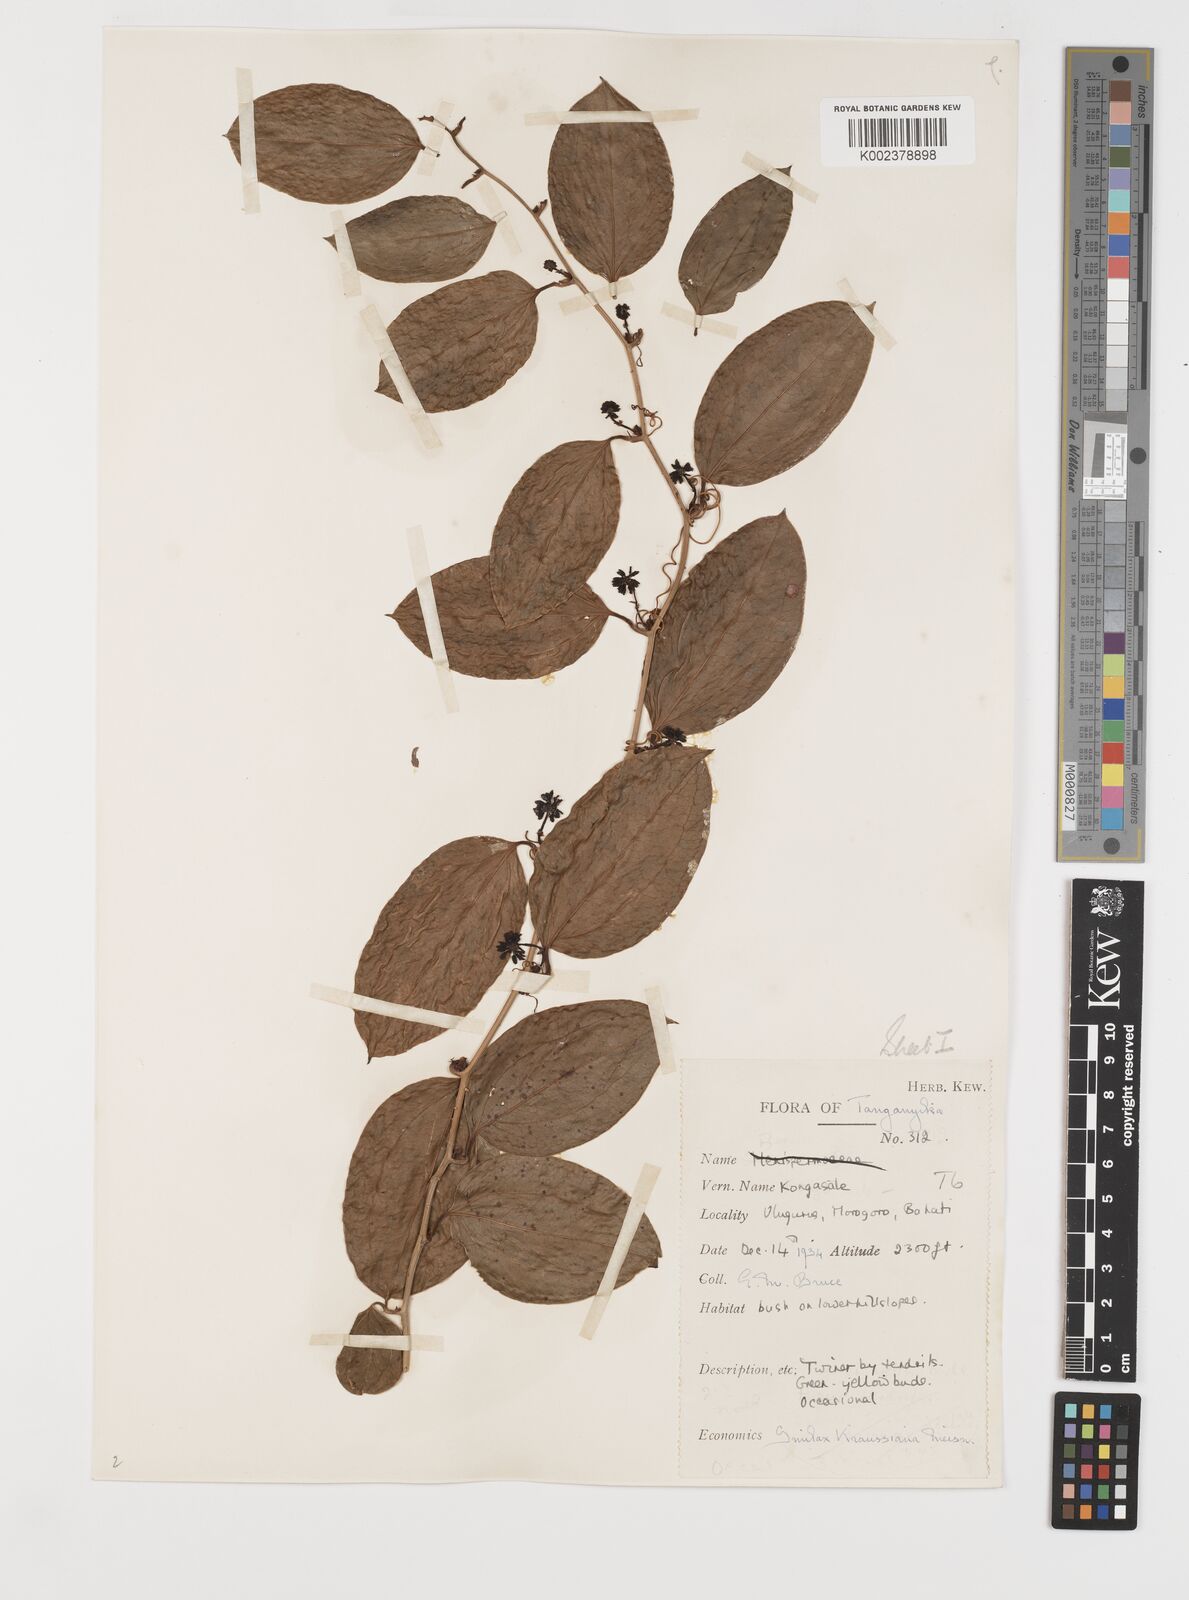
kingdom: Plantae
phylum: Tracheophyta
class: Liliopsida
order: Liliales
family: Smilacaceae
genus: Smilax
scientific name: Smilax anceps
